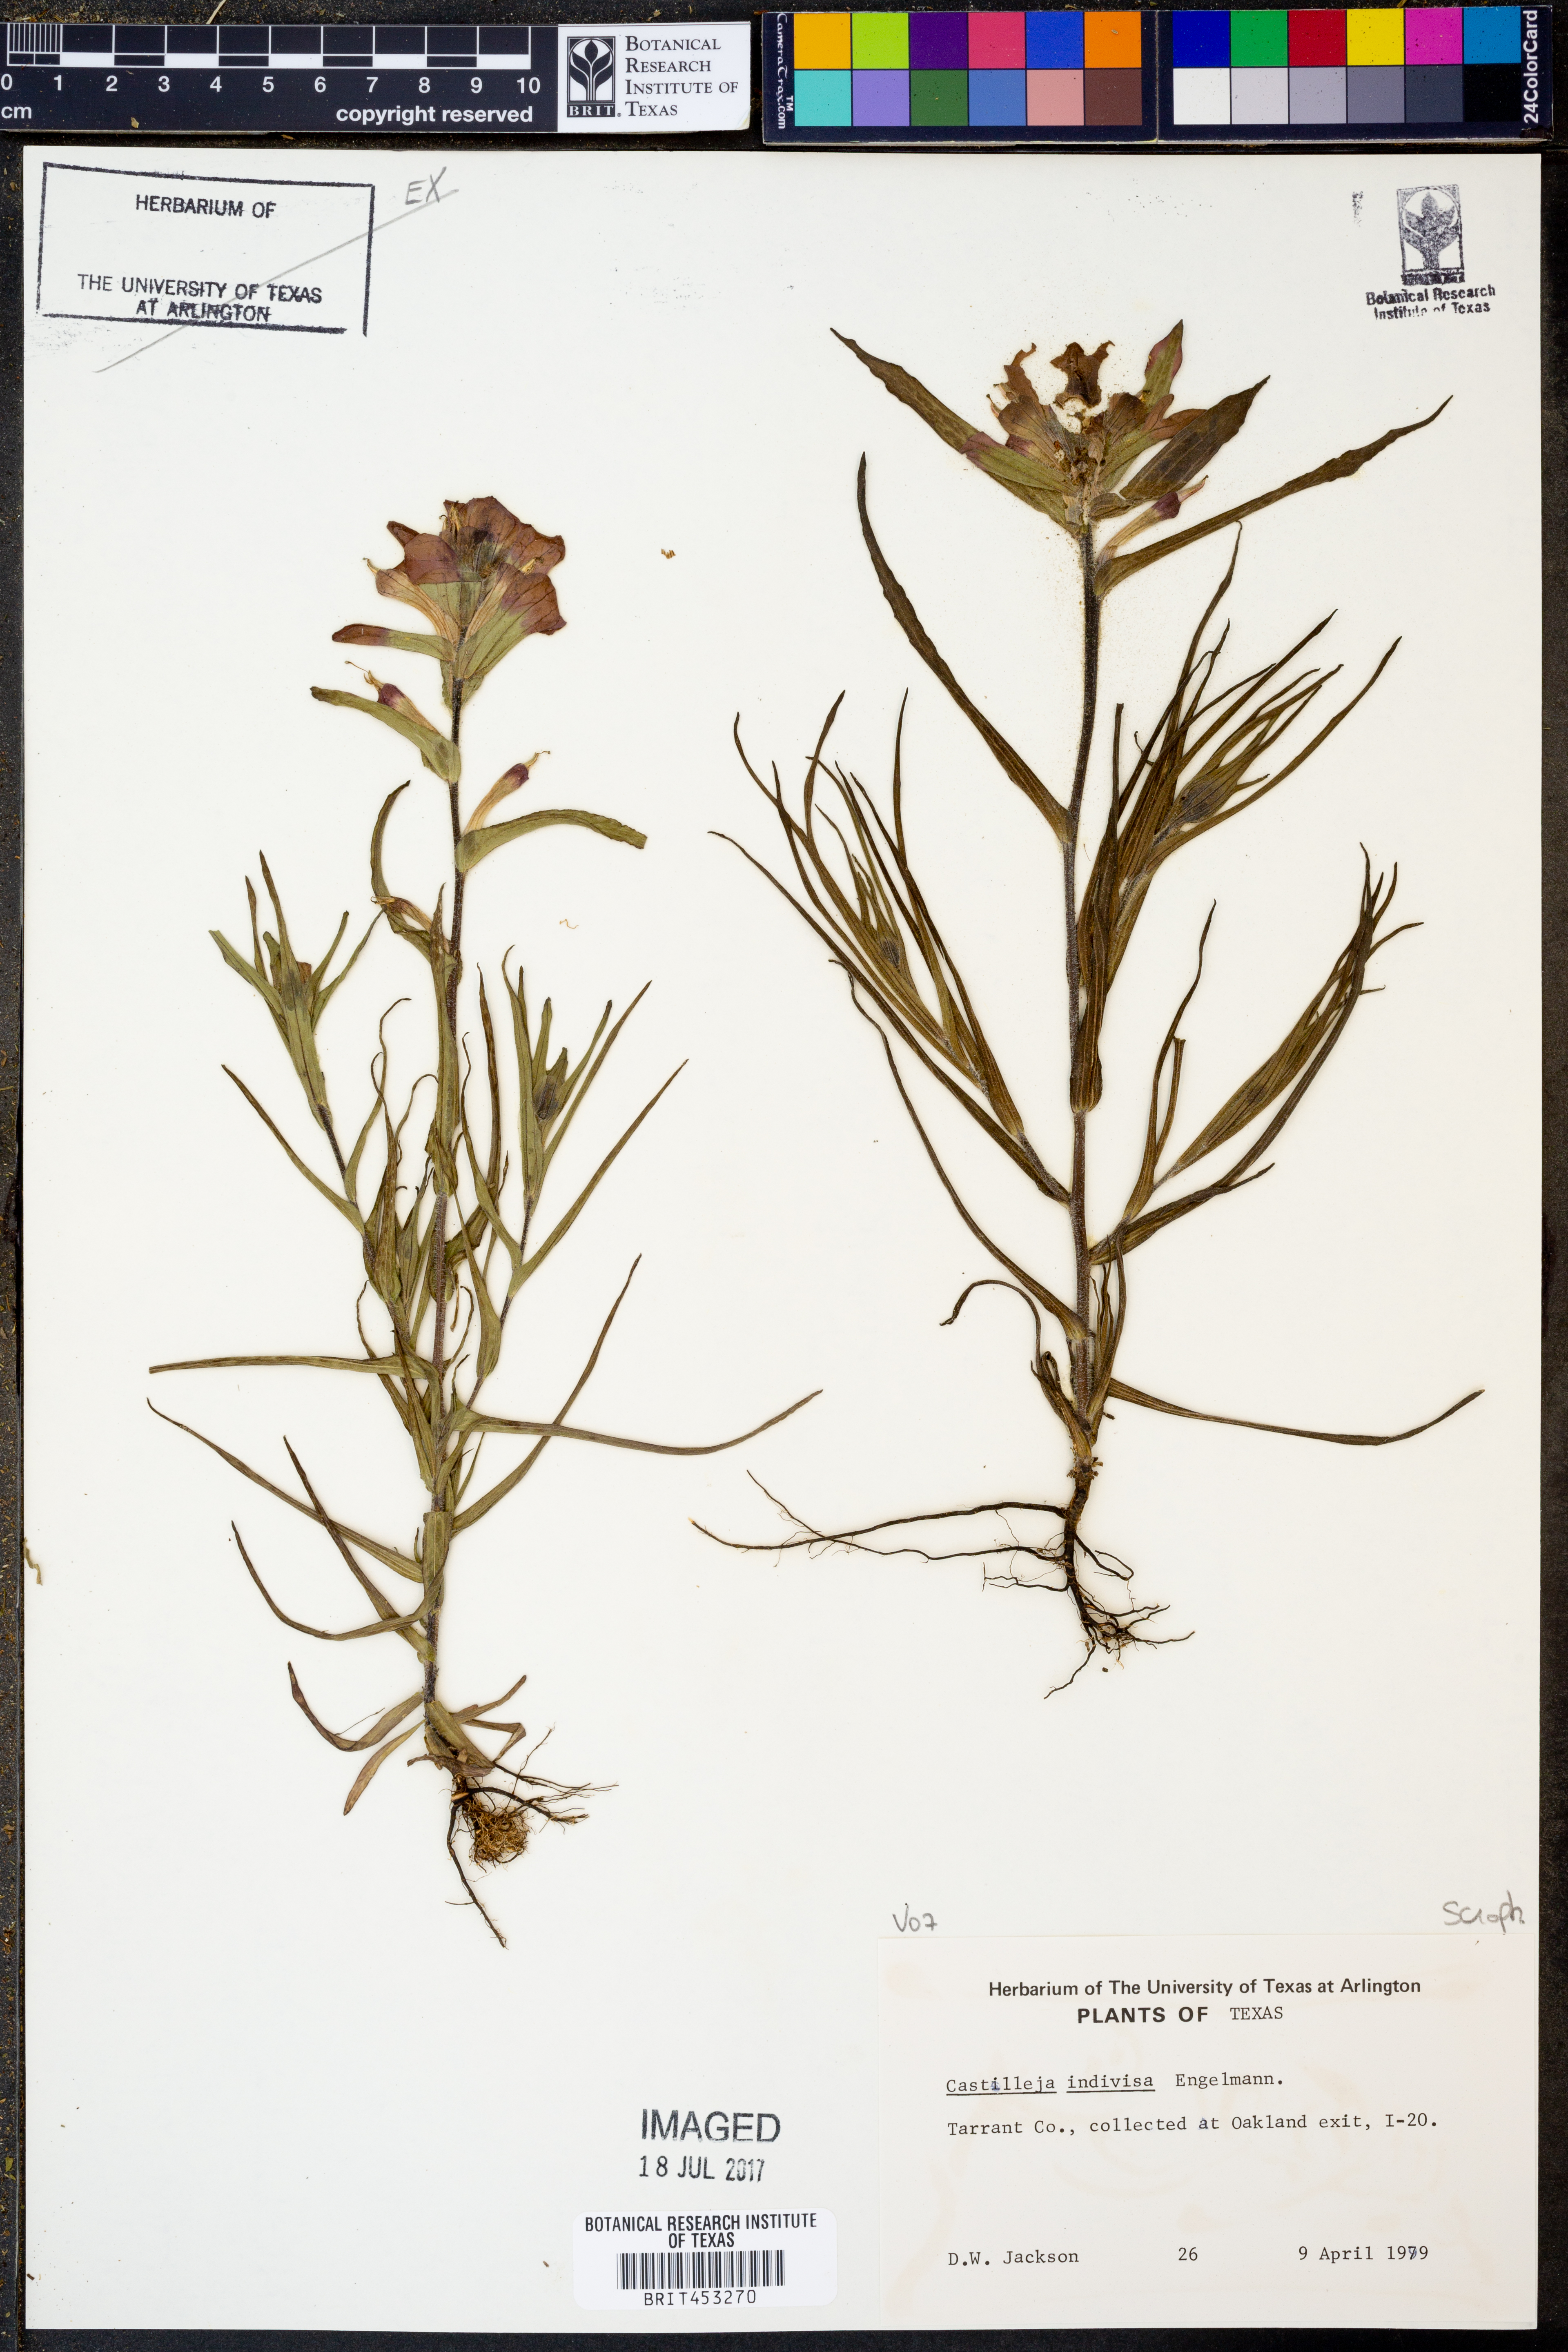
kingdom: Plantae
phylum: Tracheophyta
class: Magnoliopsida
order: Lamiales
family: Orobanchaceae
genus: Castilleja
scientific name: Castilleja indivisa
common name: Texas paintbrush
